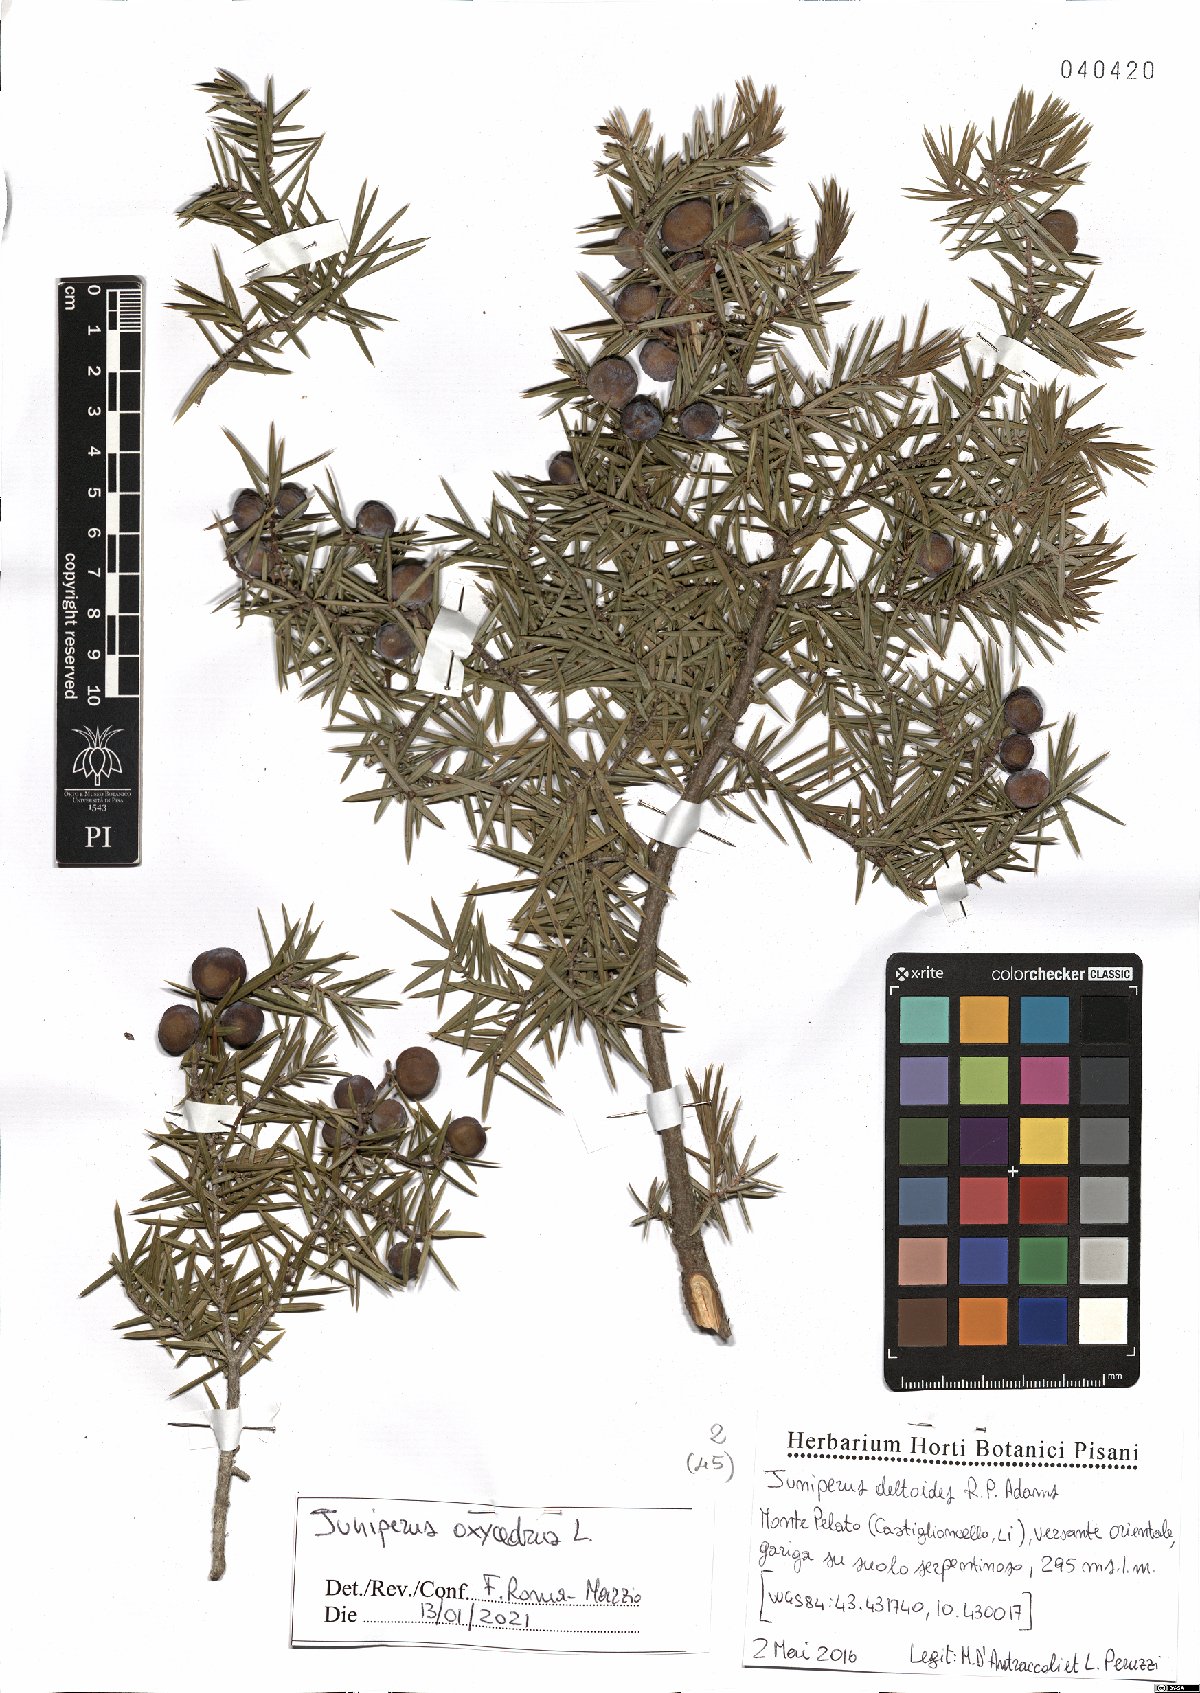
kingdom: Plantae
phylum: Tracheophyta
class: Pinopsida
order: Pinales
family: Cupressaceae
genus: Juniperus
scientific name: Juniperus oxycedrus
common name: Prickly juniper
